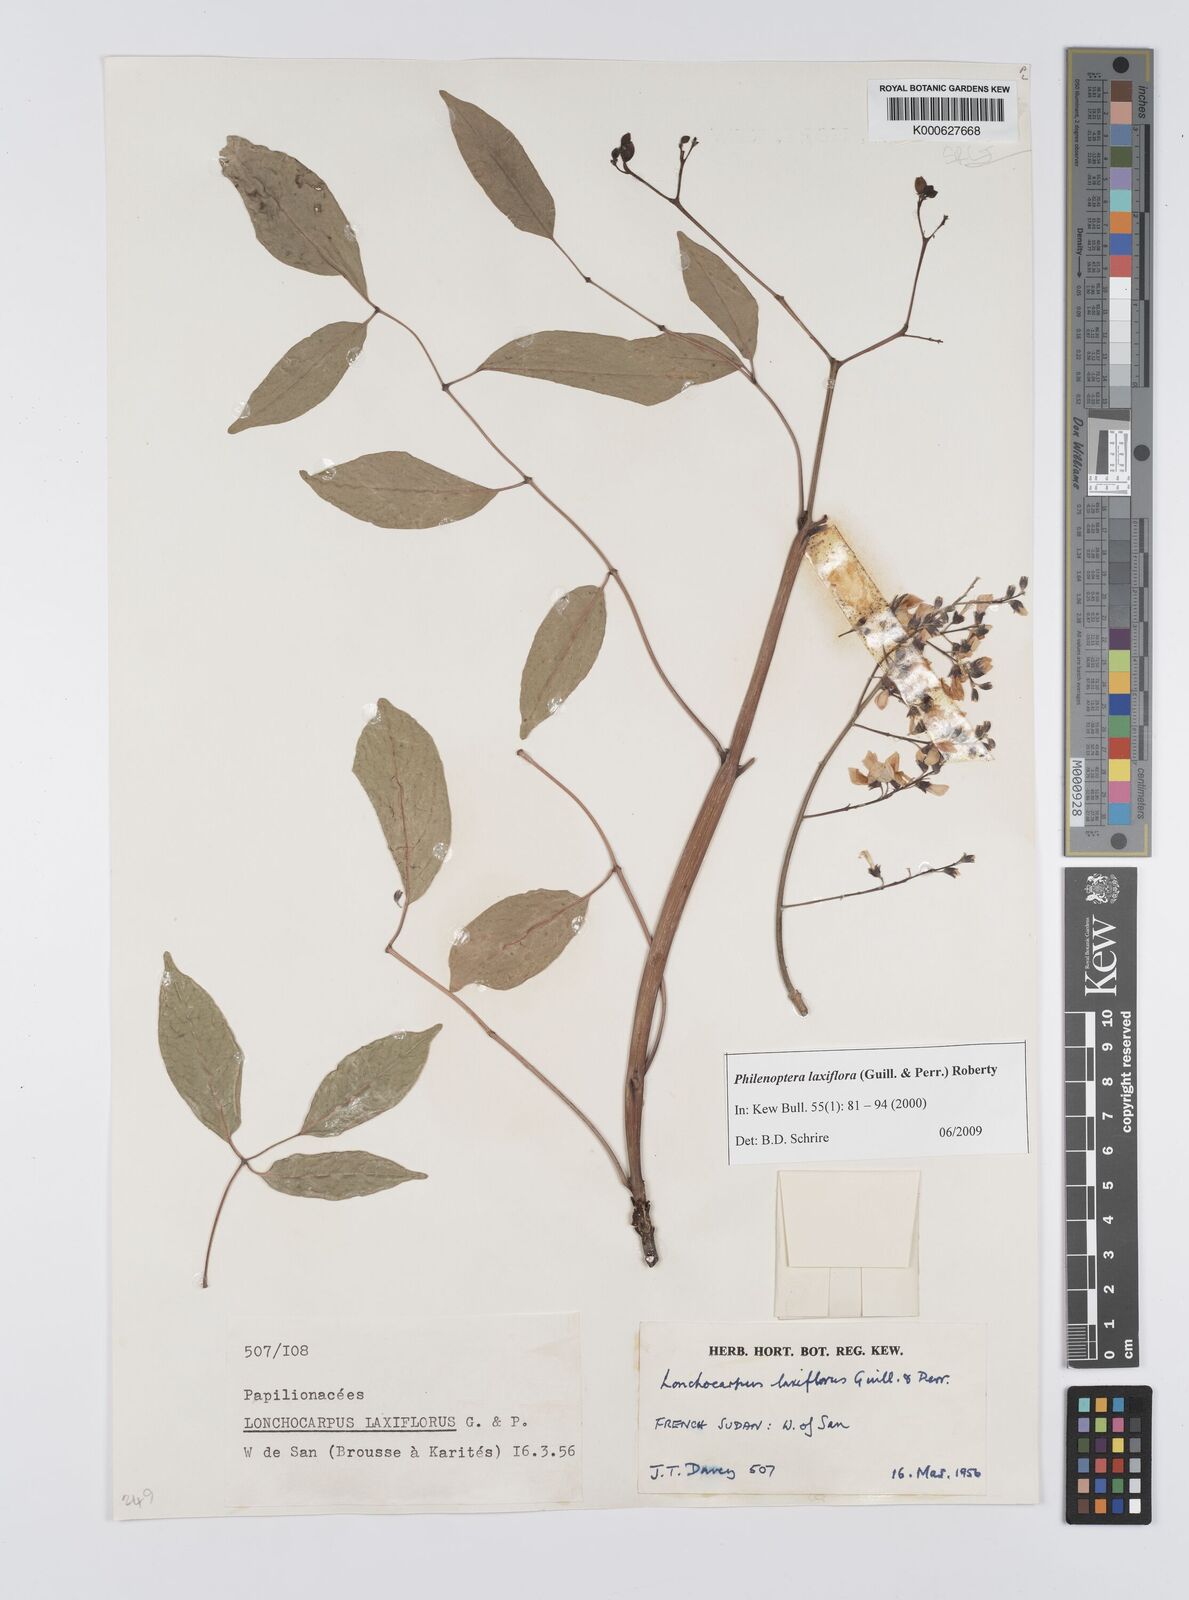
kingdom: Plantae
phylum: Tracheophyta
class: Magnoliopsida
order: Fabales
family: Fabaceae
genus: Philenoptera
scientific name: Philenoptera laxiflora
